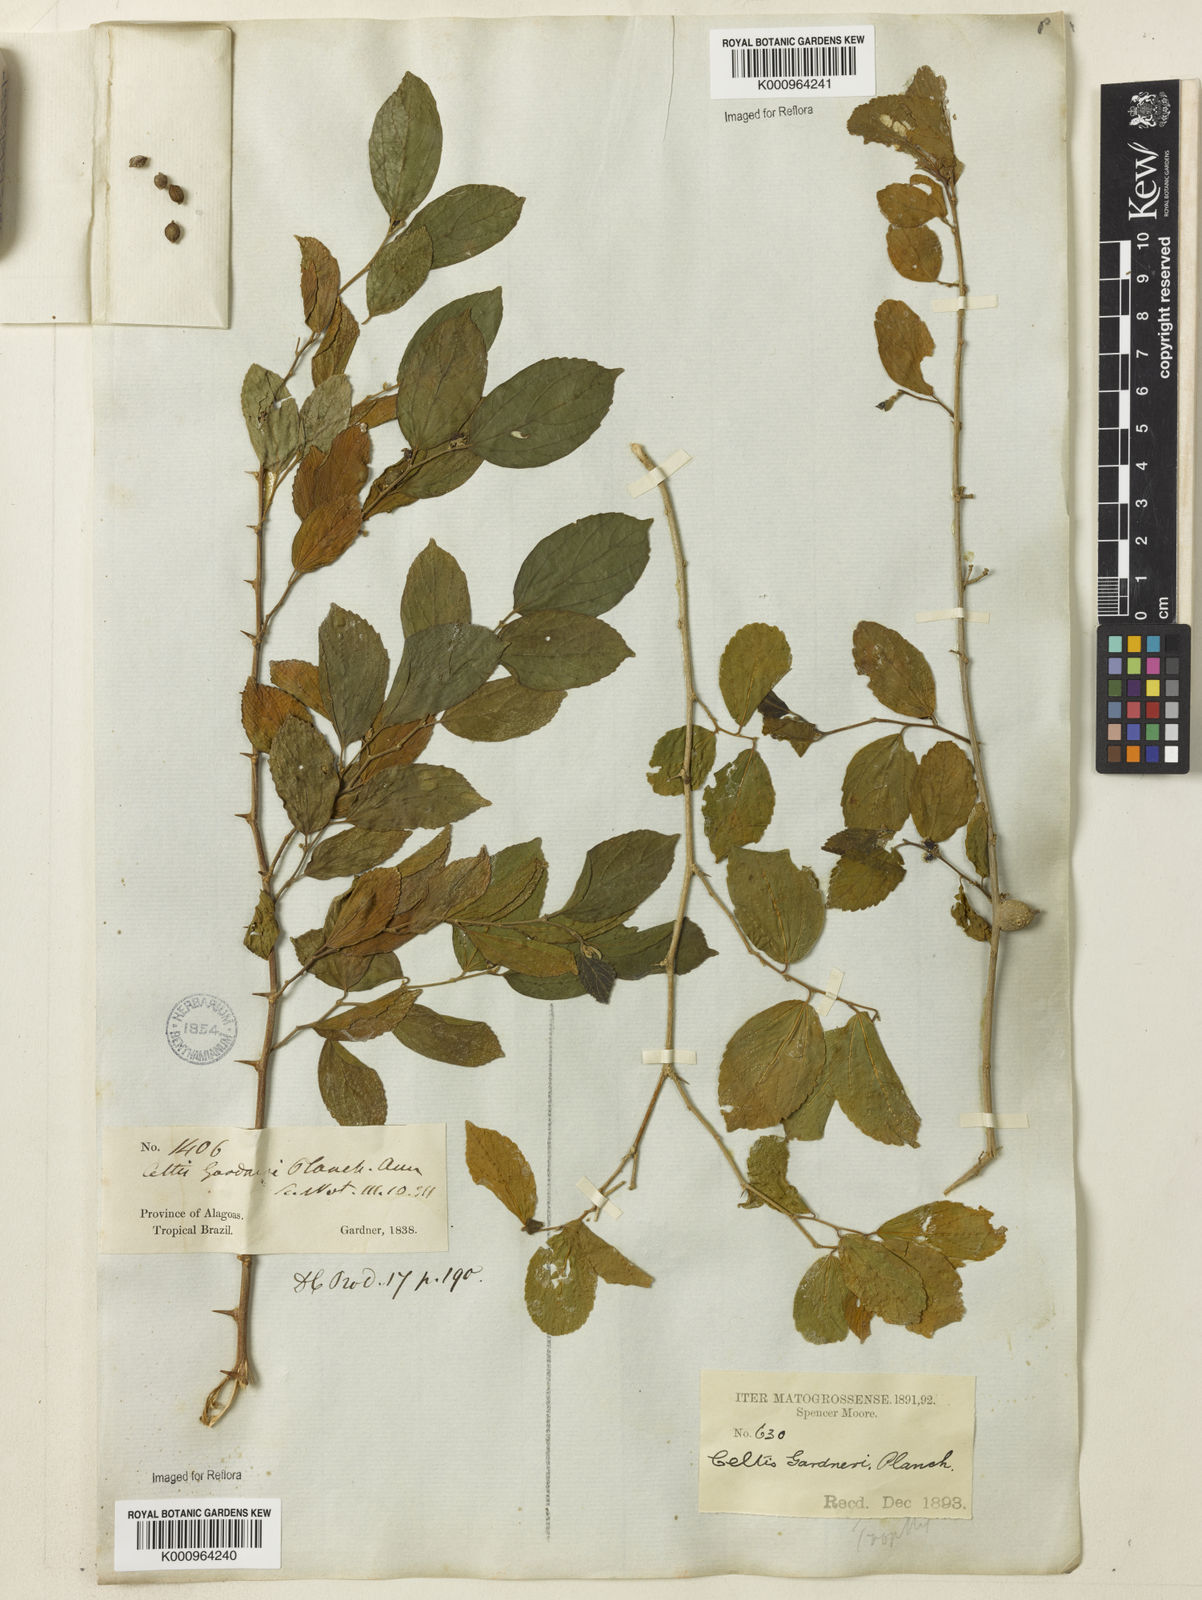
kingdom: Plantae
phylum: Tracheophyta
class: Magnoliopsida
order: Rosales
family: Cannabaceae
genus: Celtis
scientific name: Celtis iguanaea
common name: Iguana hackberry
